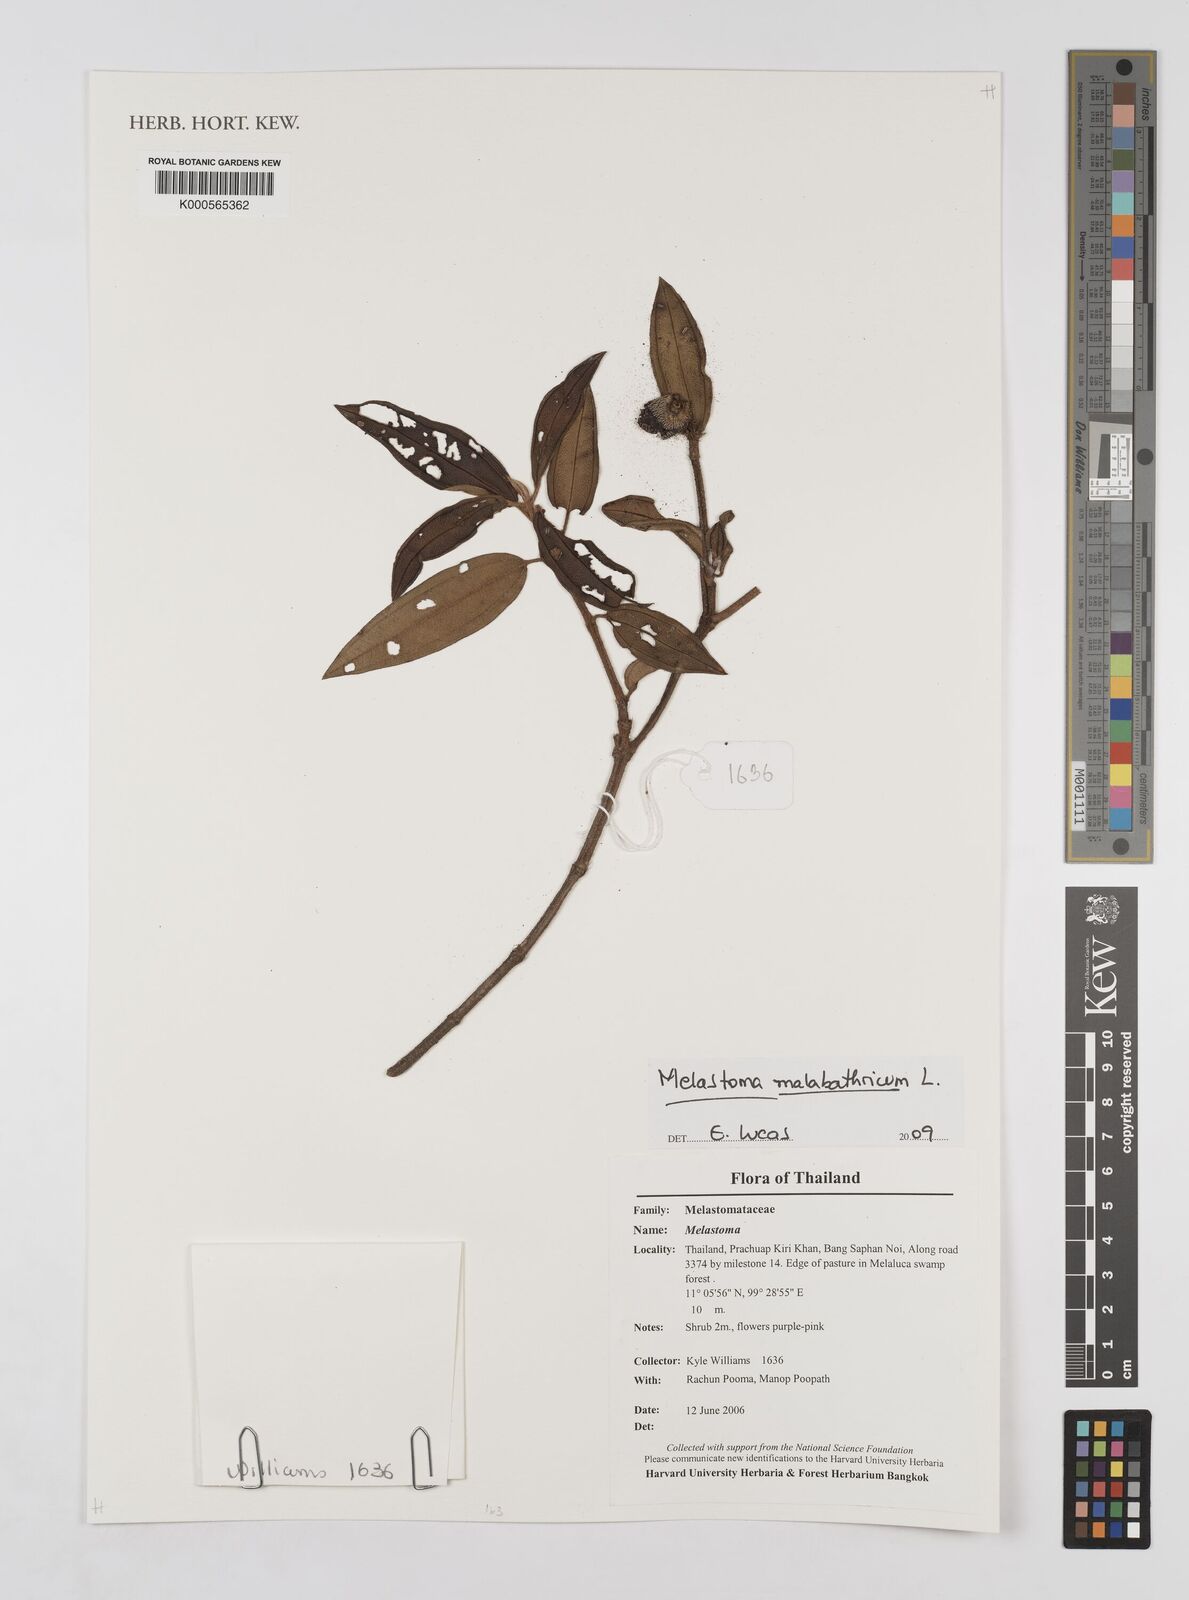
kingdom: Plantae
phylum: Tracheophyta
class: Magnoliopsida
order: Myrtales
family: Melastomataceae
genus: Melastoma
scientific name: Melastoma malabathricum
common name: Indian-rhododendron
